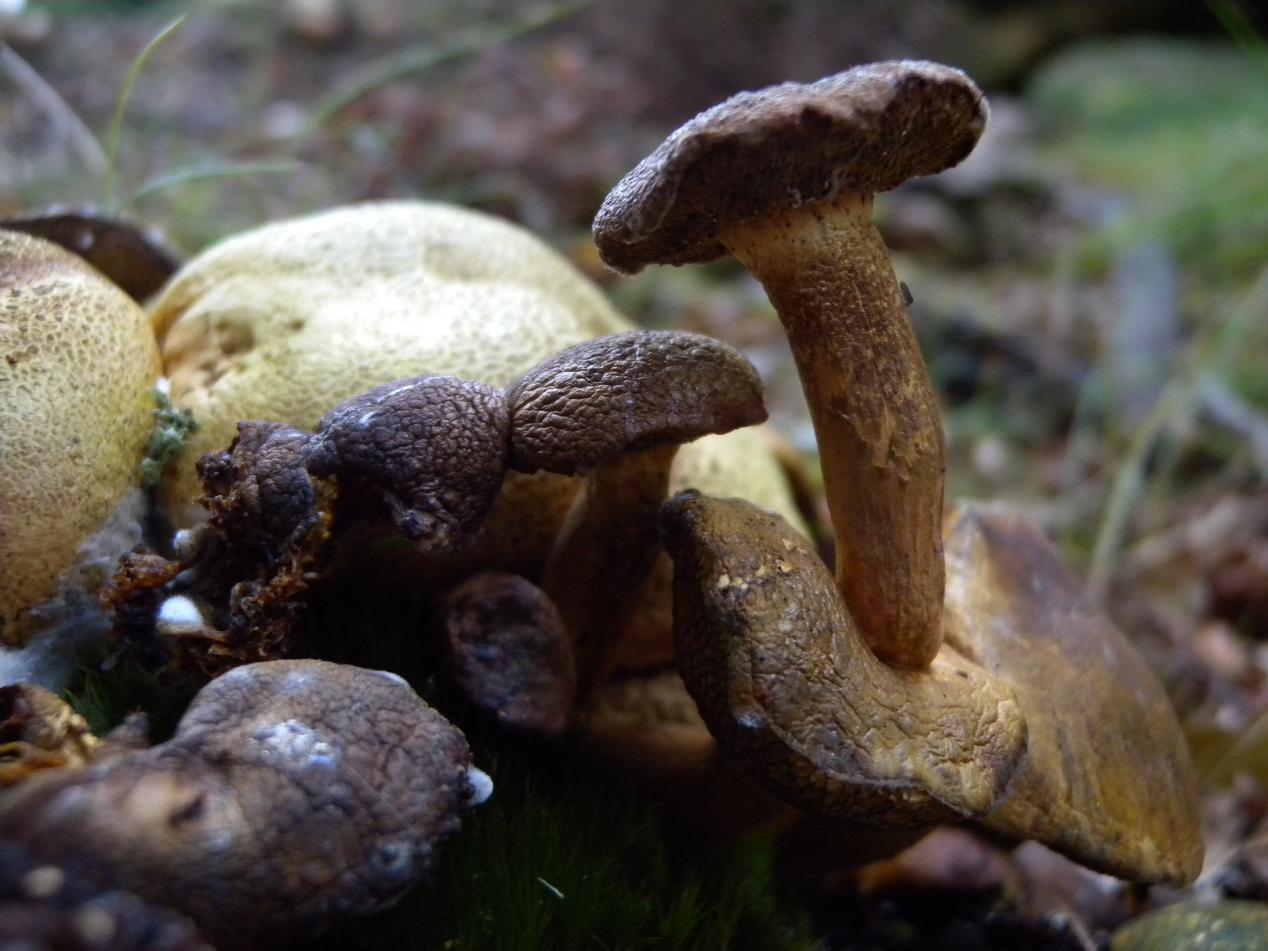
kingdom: Fungi
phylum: Basidiomycota
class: Agaricomycetes
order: Boletales
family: Boletaceae
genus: Pseudoboletus
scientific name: Pseudoboletus parasiticus
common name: snyltende rørhat
